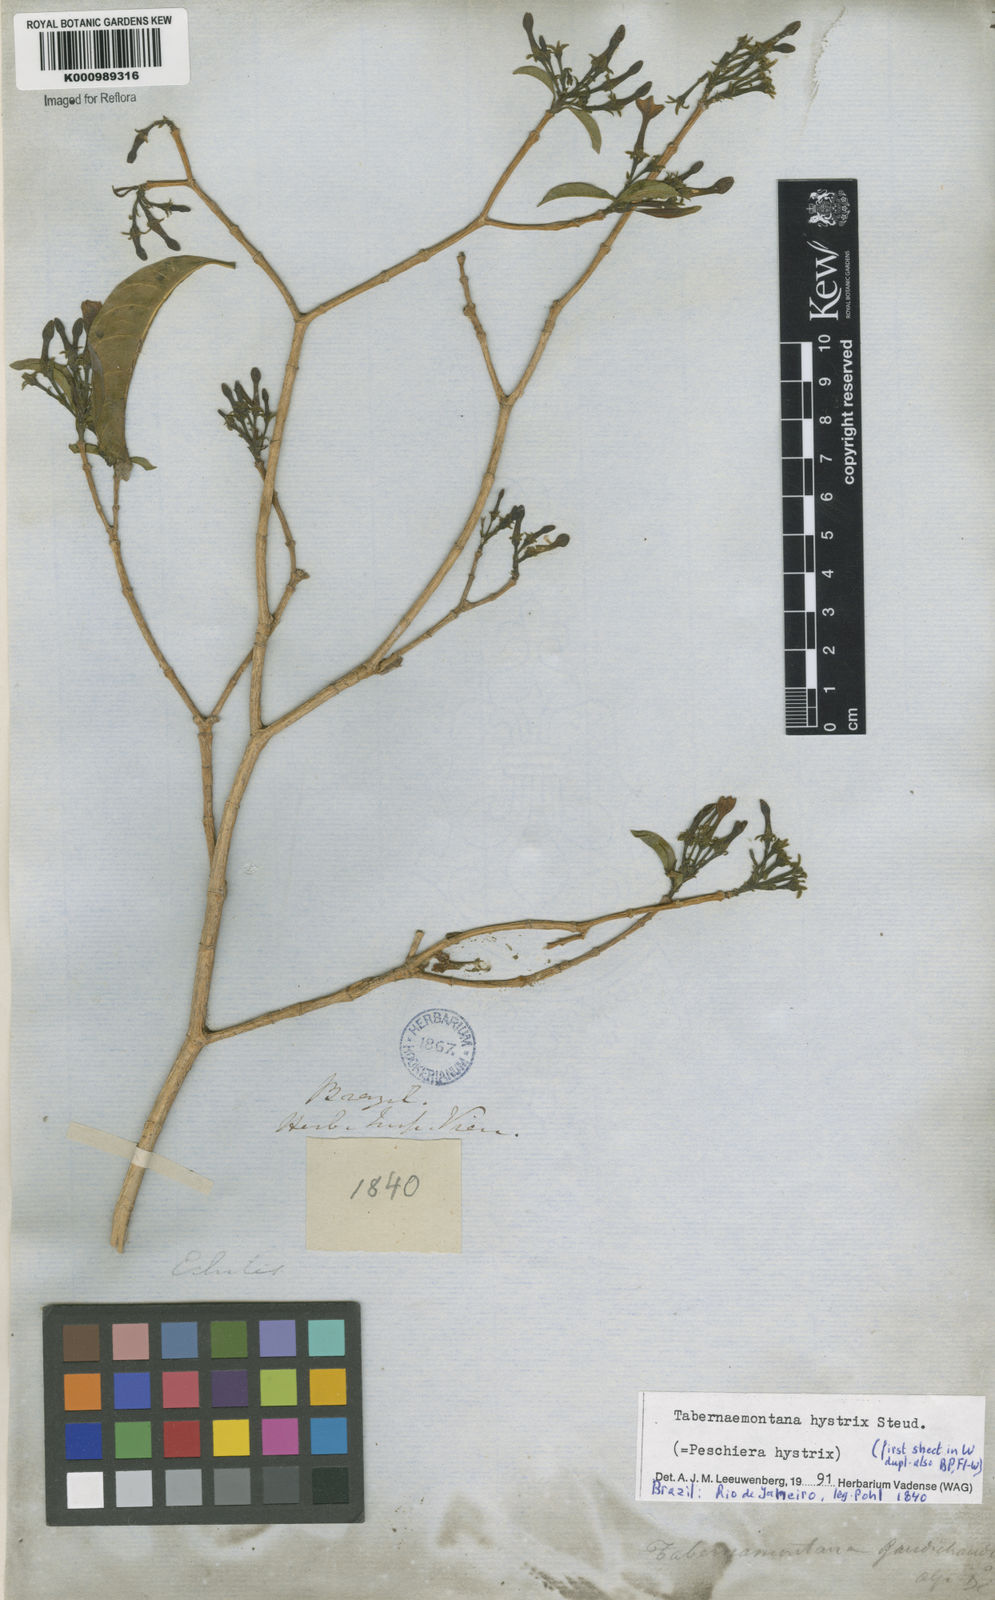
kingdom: Plantae
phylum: Tracheophyta
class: Magnoliopsida
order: Gentianales
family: Apocynaceae
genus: Tabernaemontana
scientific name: Tabernaemontana hystrix
